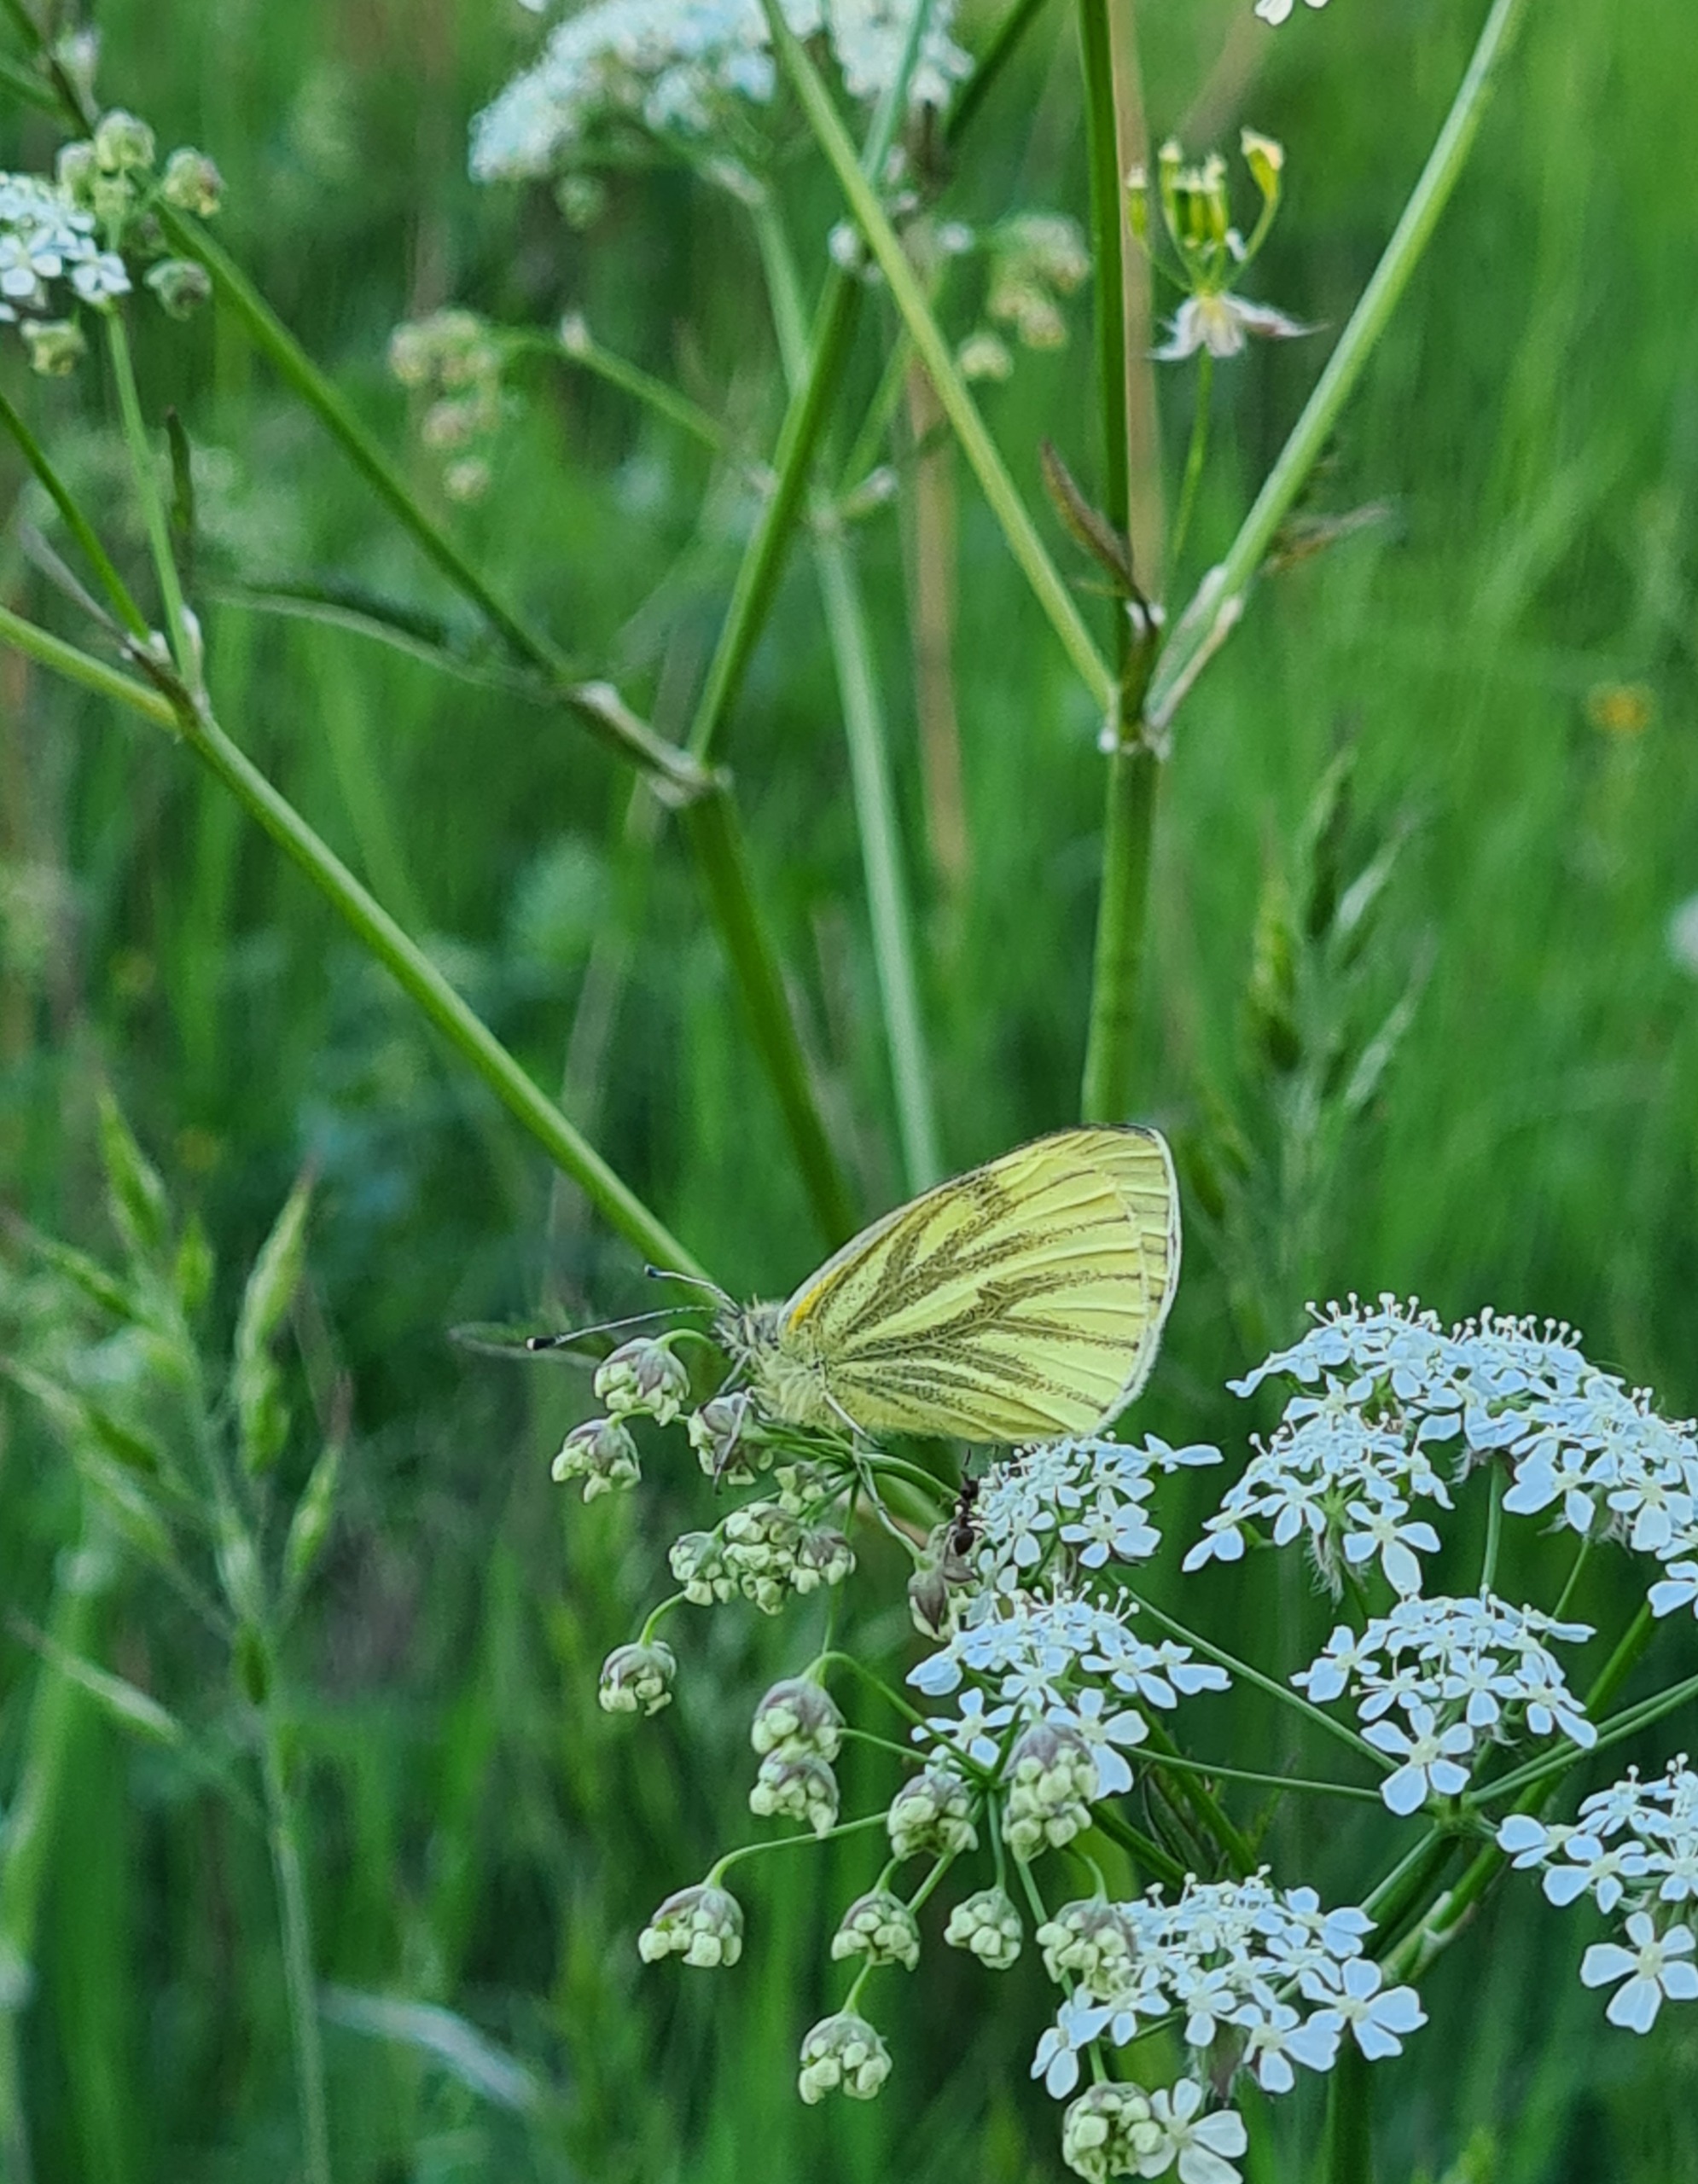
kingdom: Animalia
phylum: Arthropoda
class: Insecta
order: Lepidoptera
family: Pieridae
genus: Pieris
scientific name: Pieris napi
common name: Grønåret kålsommerfugl
